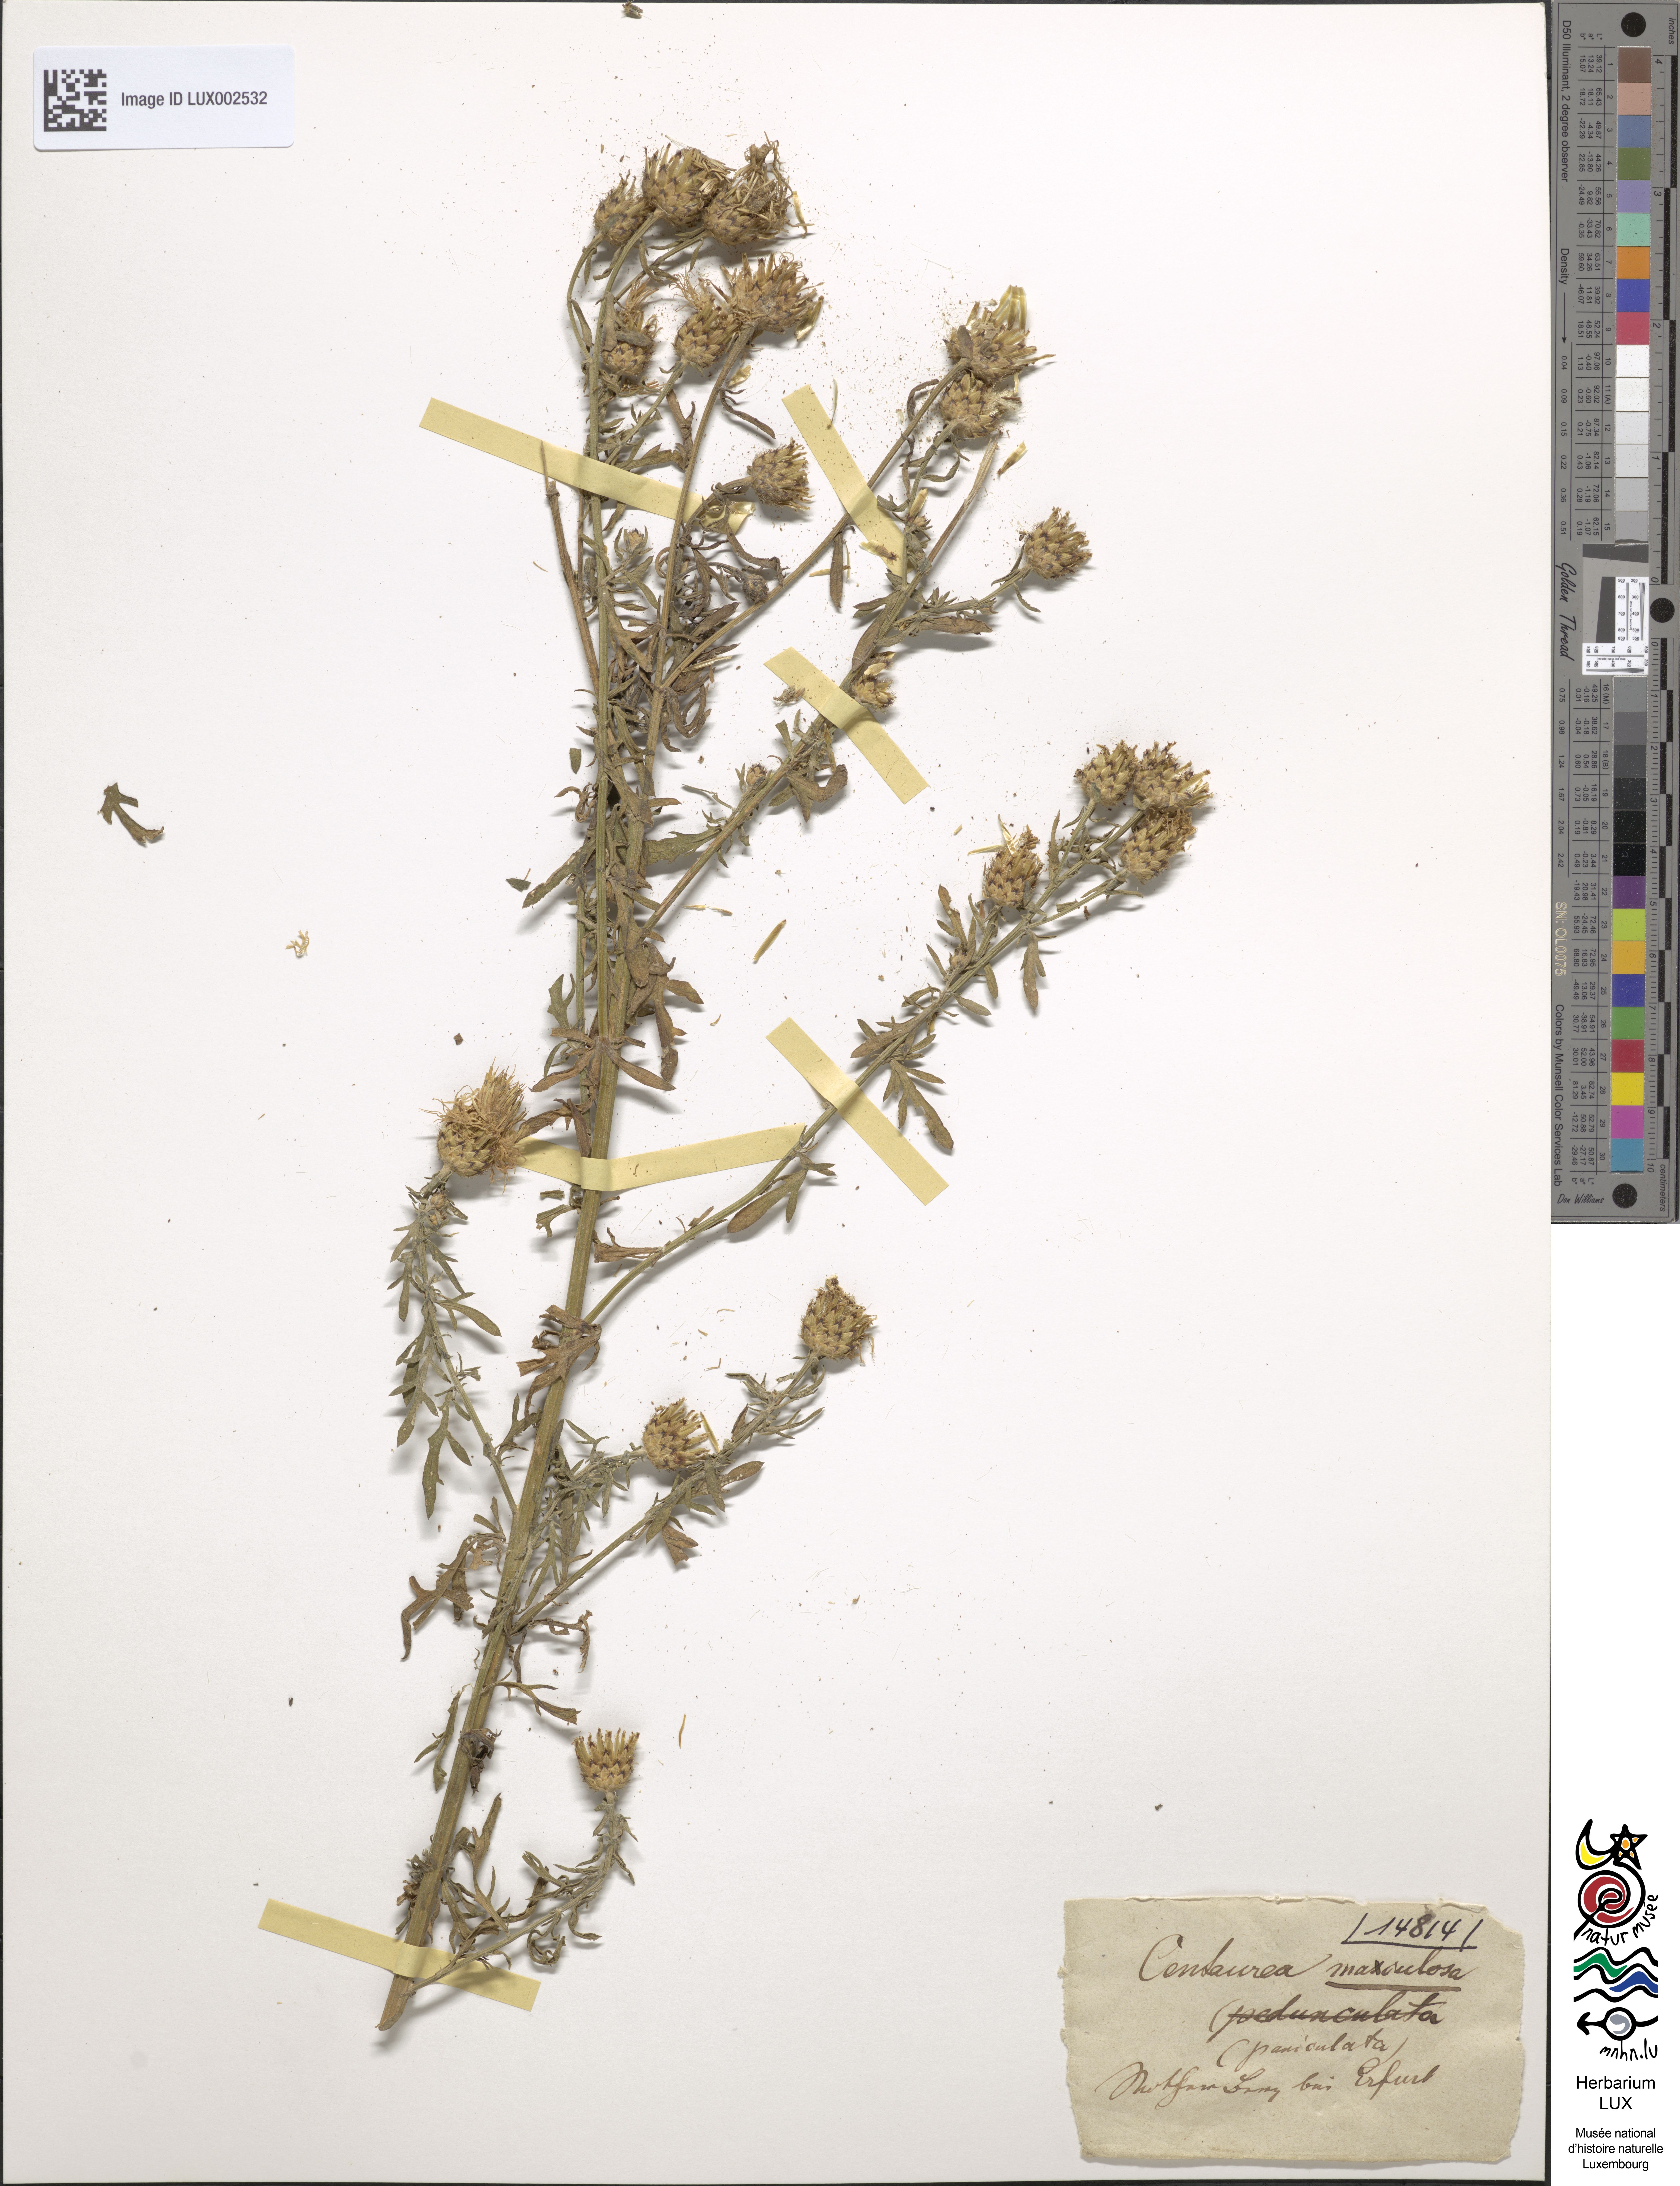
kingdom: Plantae
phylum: Tracheophyta
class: Magnoliopsida
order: Asterales
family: Asteraceae
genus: Centaurea
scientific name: Centaurea stoebe
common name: Spotted knapweed
